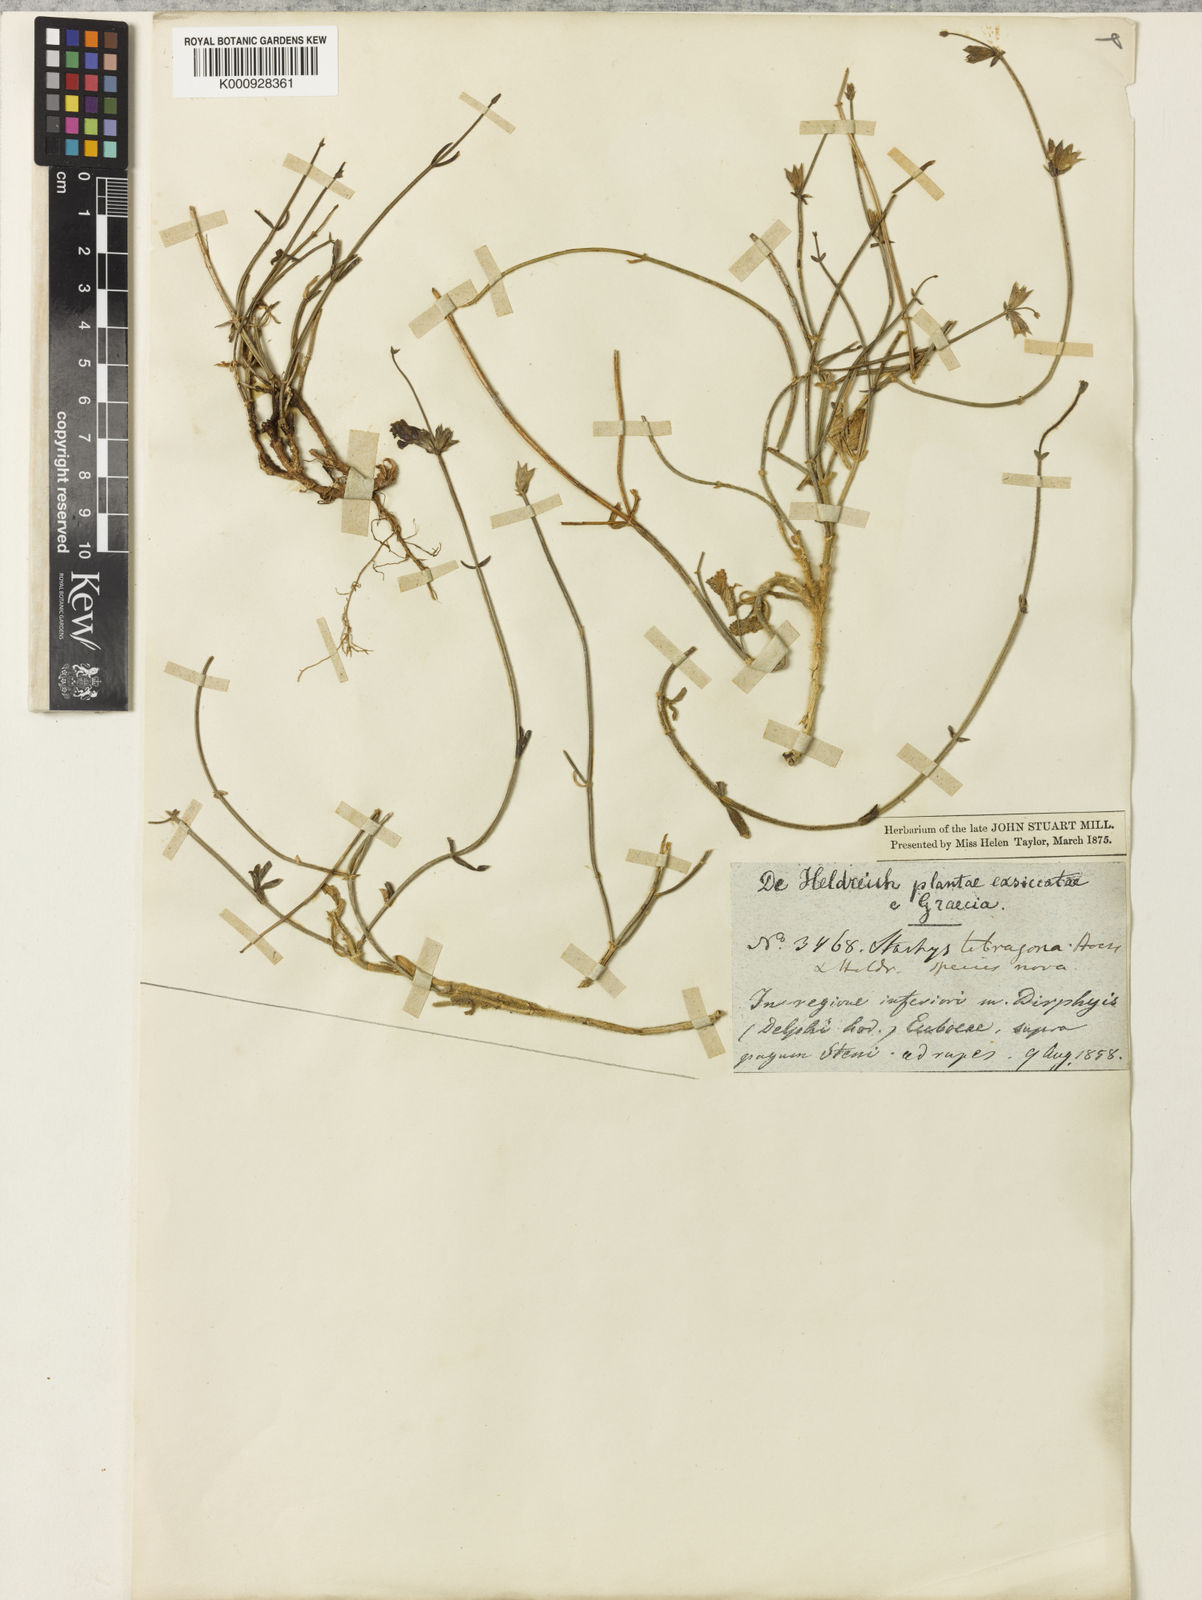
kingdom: Plantae
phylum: Tracheophyta
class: Magnoliopsida
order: Lamiales
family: Lamiaceae
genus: Stachys
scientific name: Stachys tetragona
